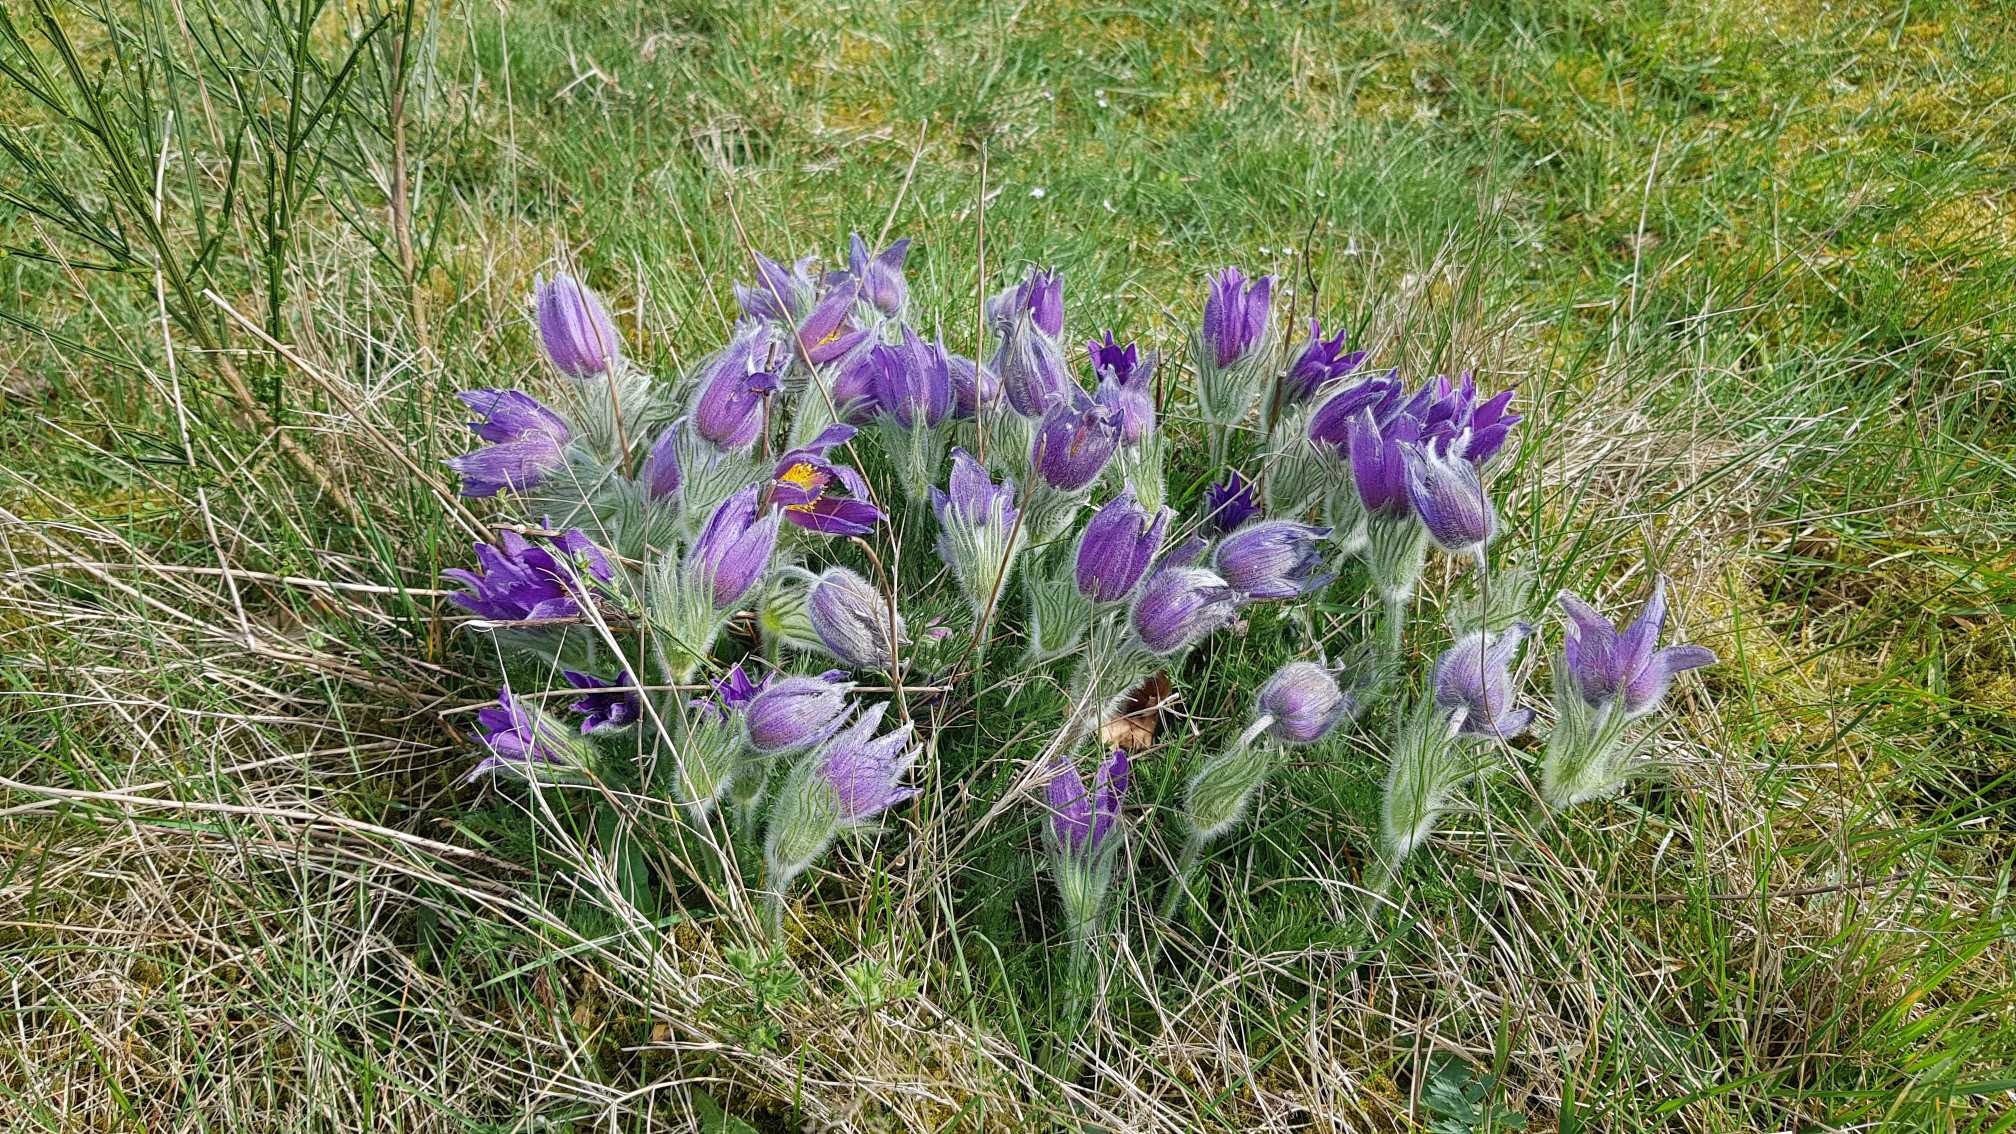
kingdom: Plantae
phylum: Tracheophyta
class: Magnoliopsida
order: Ranunculales
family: Ranunculaceae
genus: Pulsatilla
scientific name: Pulsatilla vulgaris
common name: Opret kobjælde
